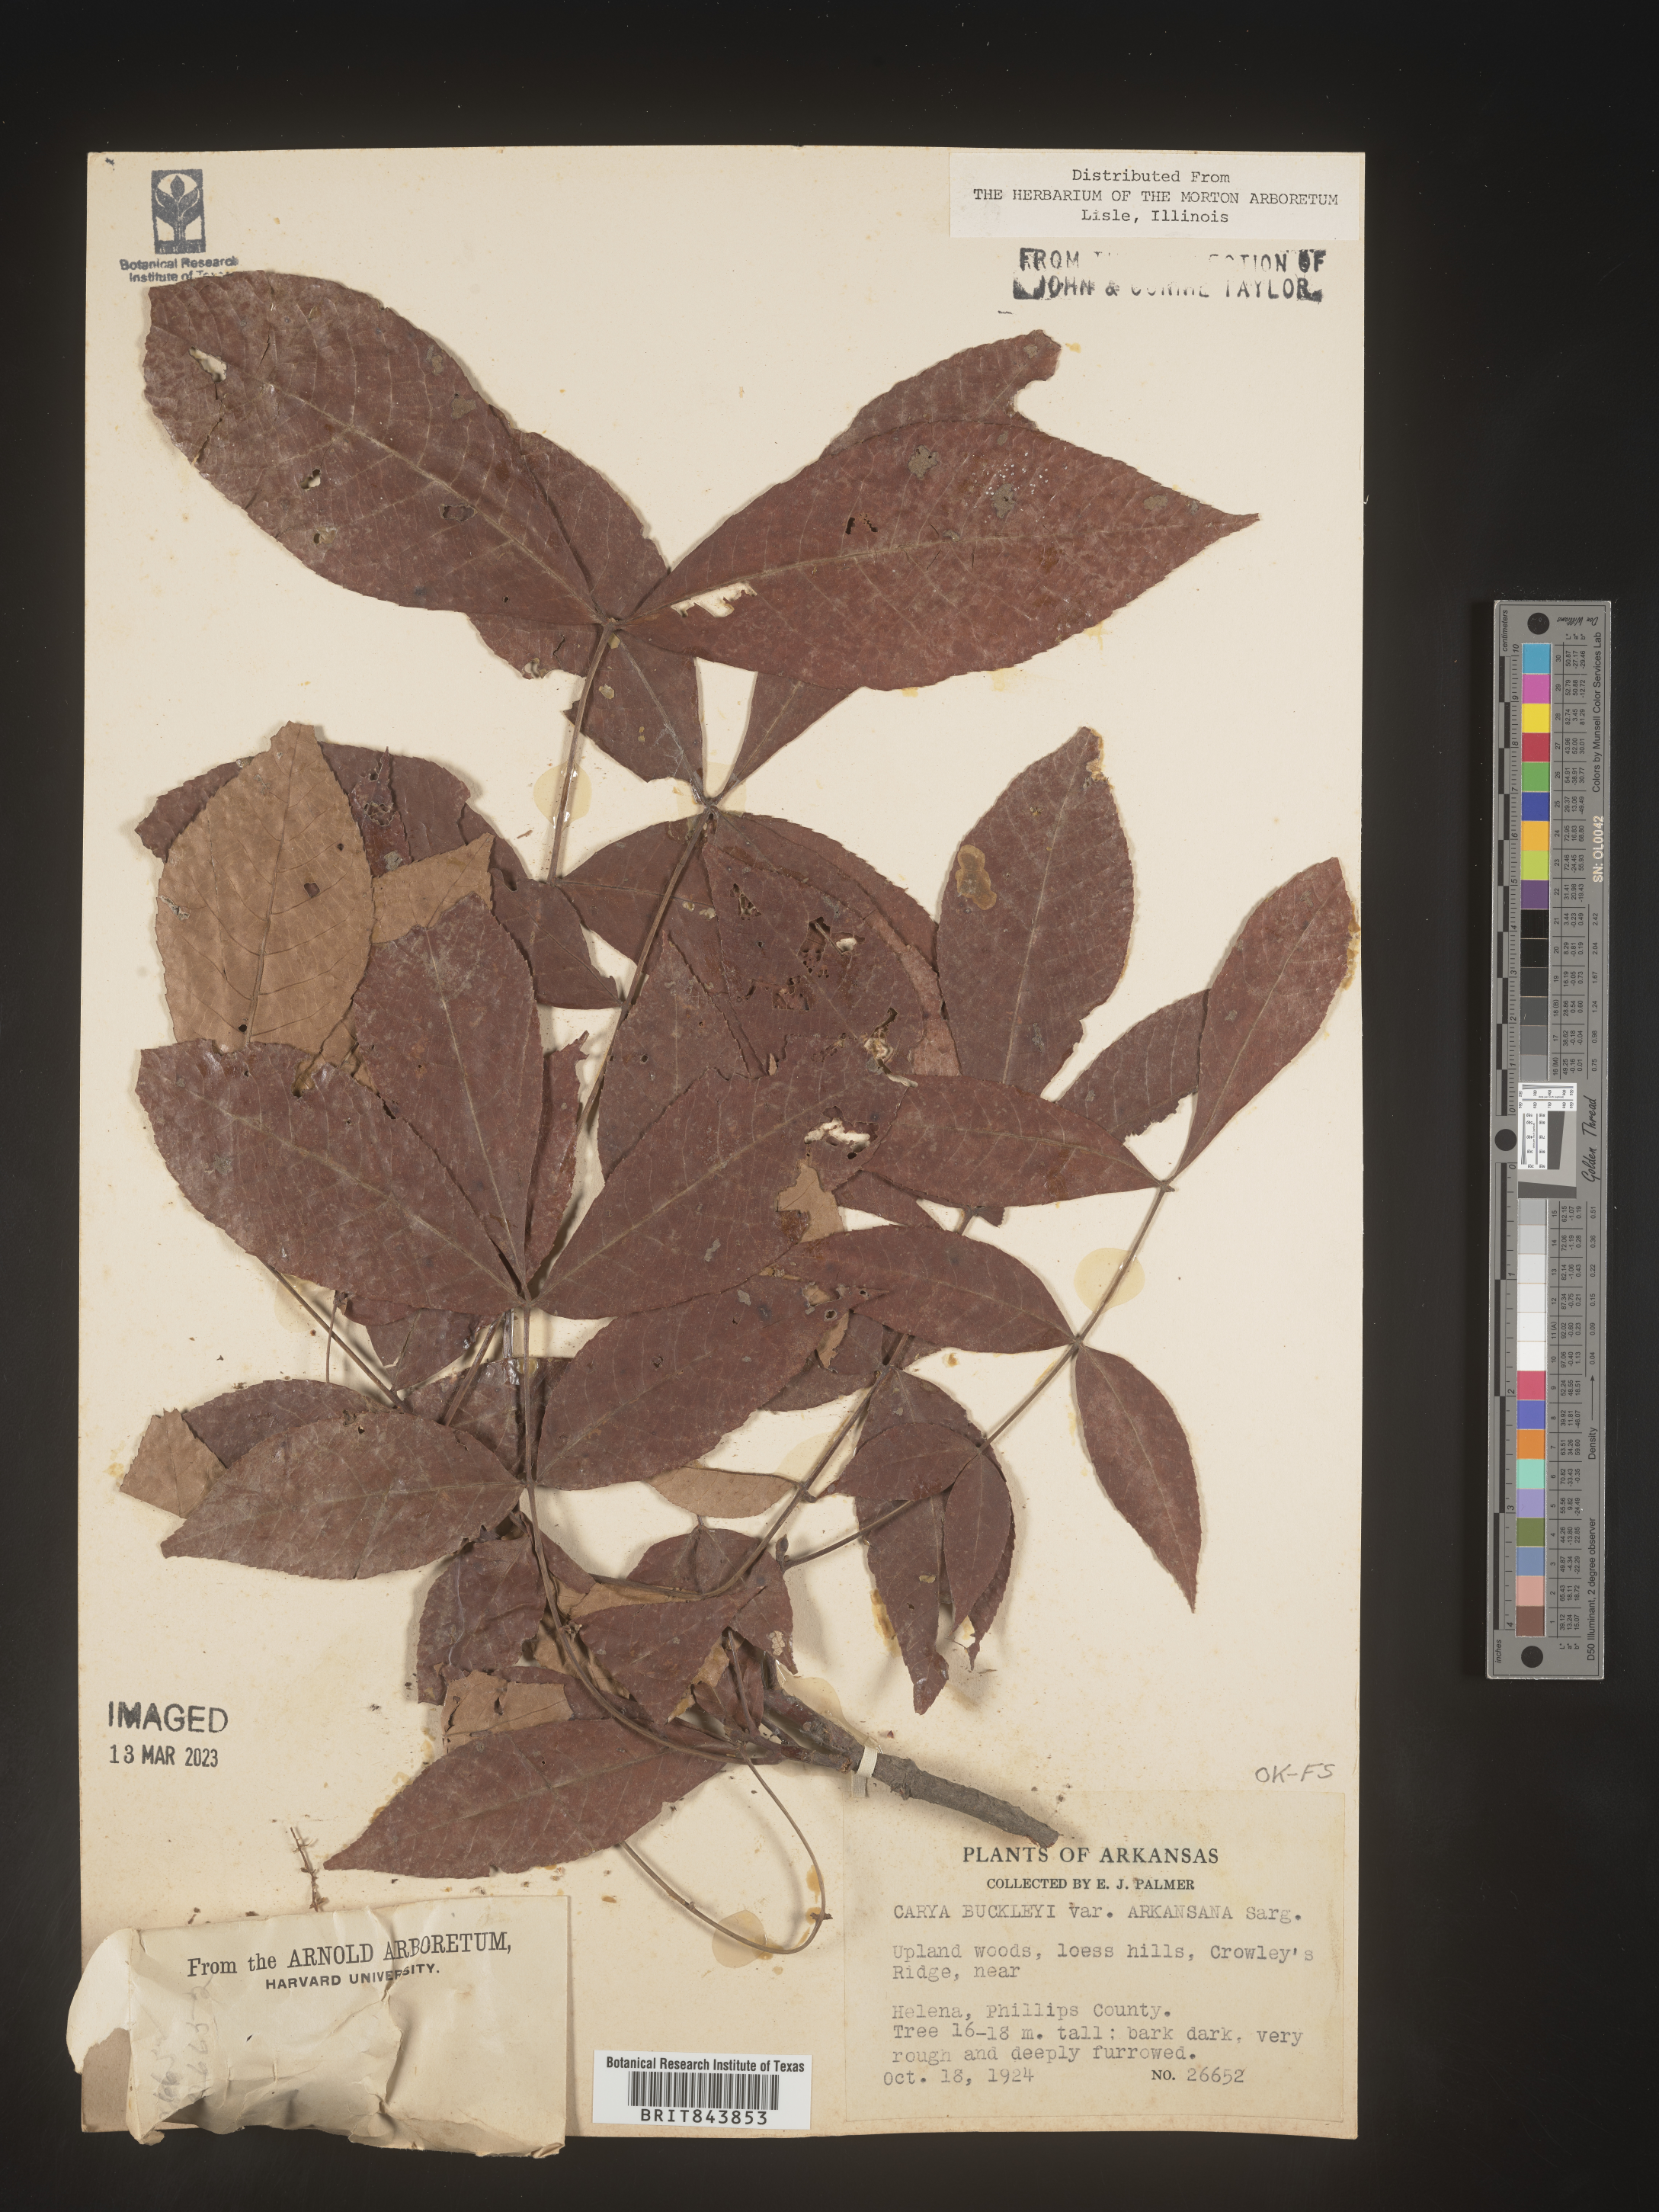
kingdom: Plantae
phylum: Tracheophyta
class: Magnoliopsida
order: Fagales
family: Juglandaceae
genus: Carya
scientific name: Carya texana
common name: Black hickory
